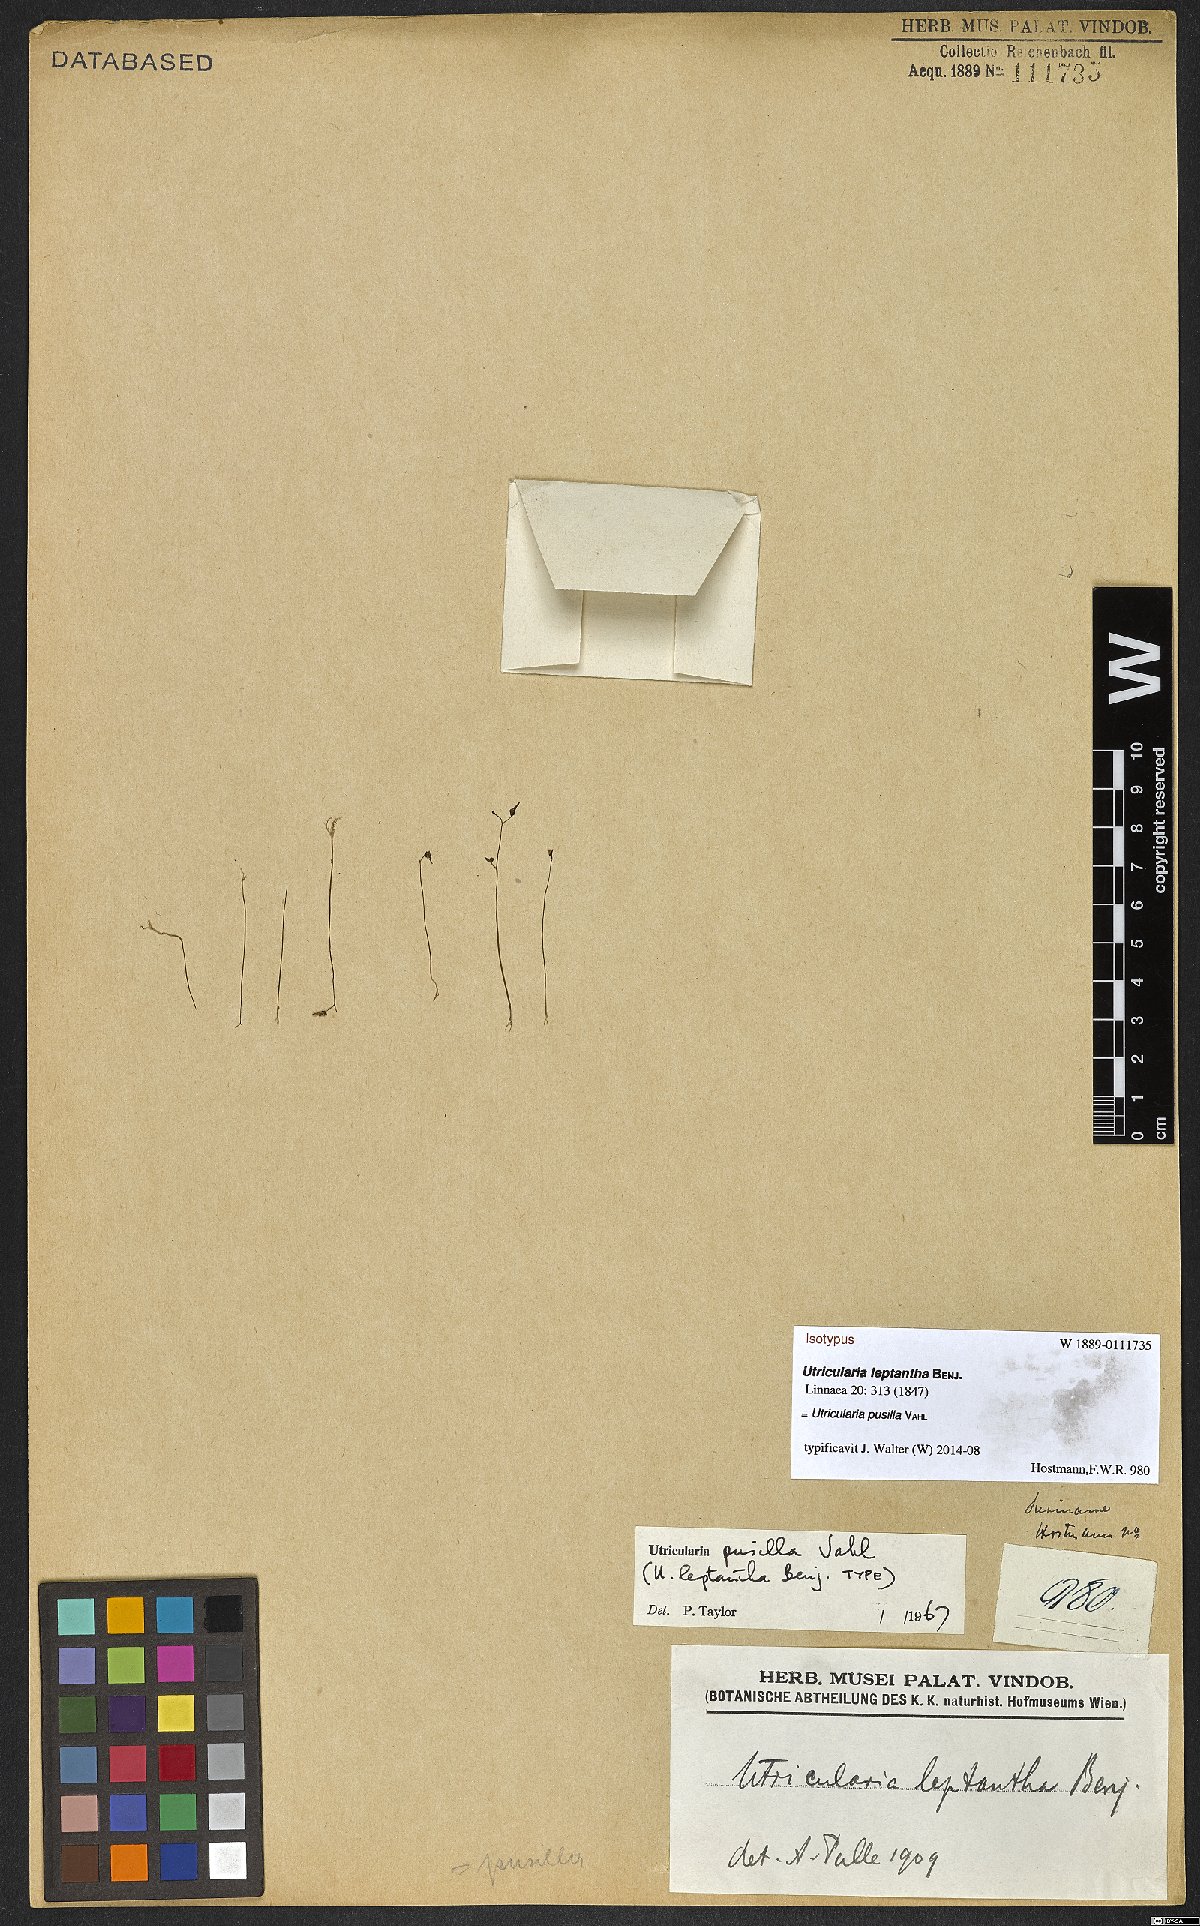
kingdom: Plantae
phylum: Tracheophyta
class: Magnoliopsida
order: Lamiales
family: Lentibulariaceae
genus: Utricularia
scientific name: Utricularia pusilla
